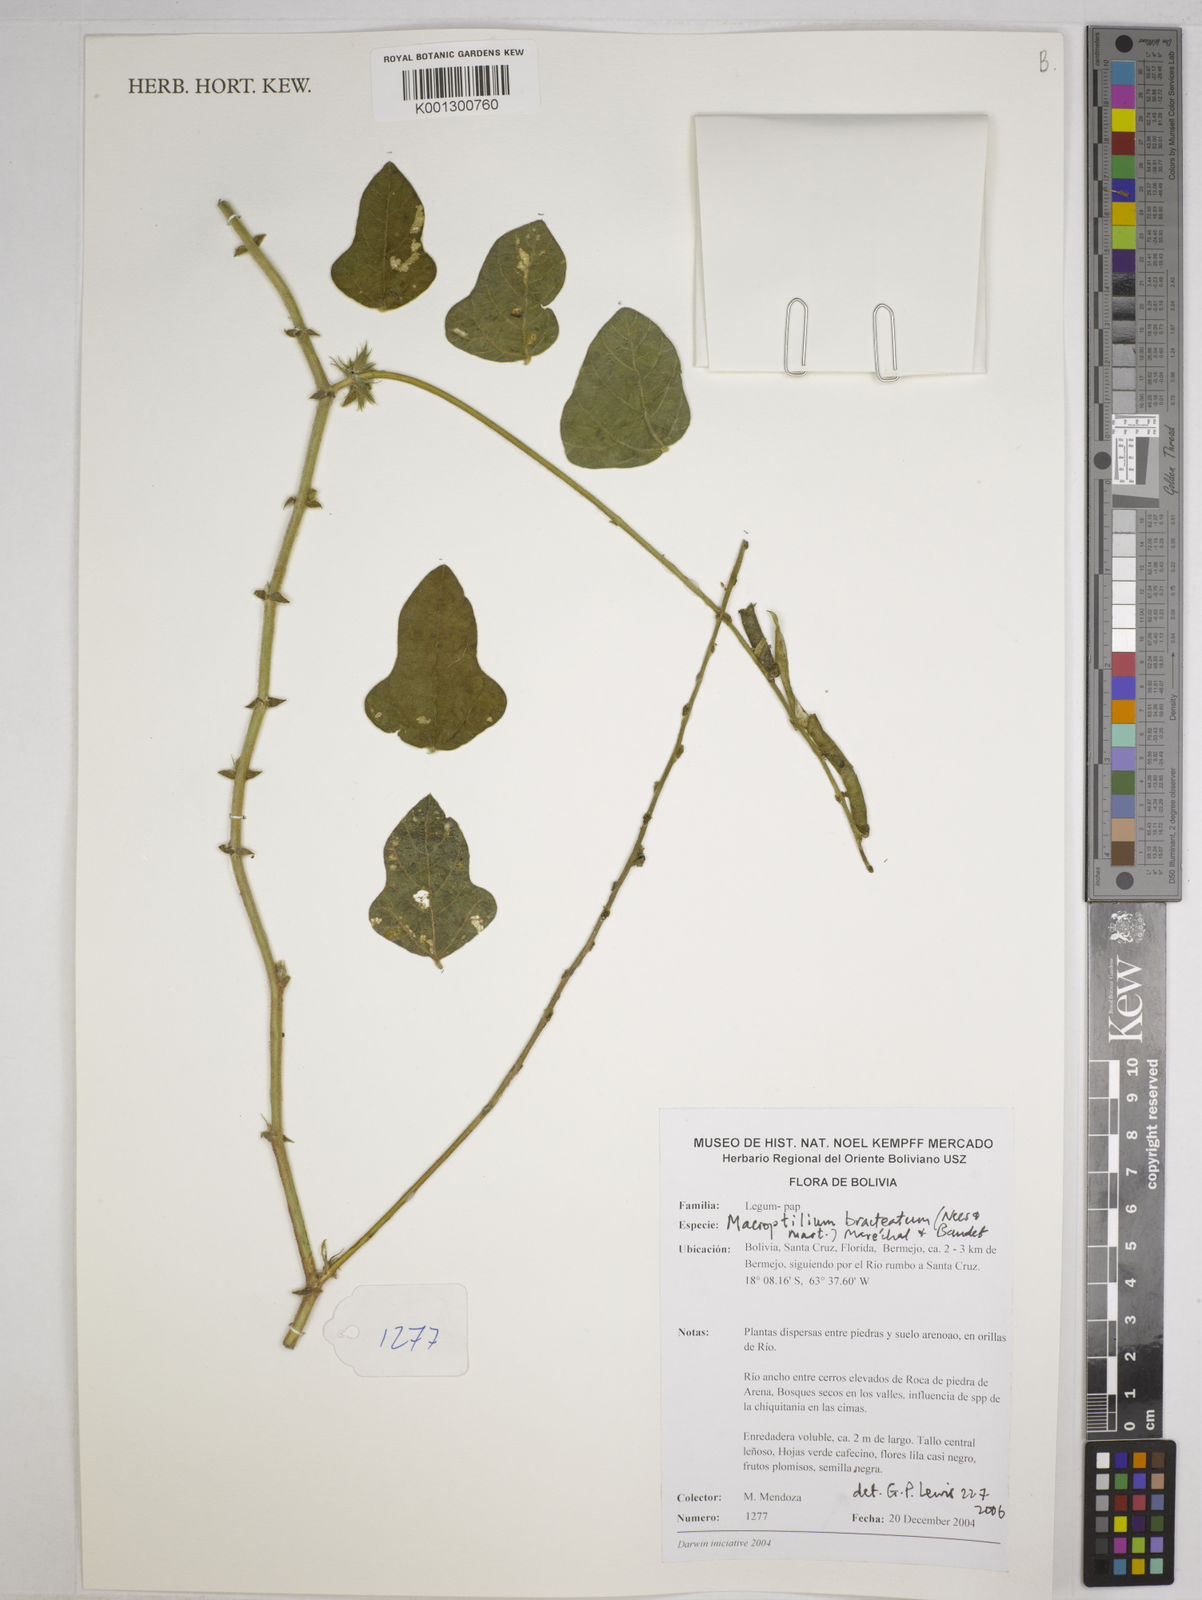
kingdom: Plantae
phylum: Tracheophyta
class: Magnoliopsida
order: Fabales
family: Fabaceae
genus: Macroptilium
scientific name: Macroptilium bracteatum
